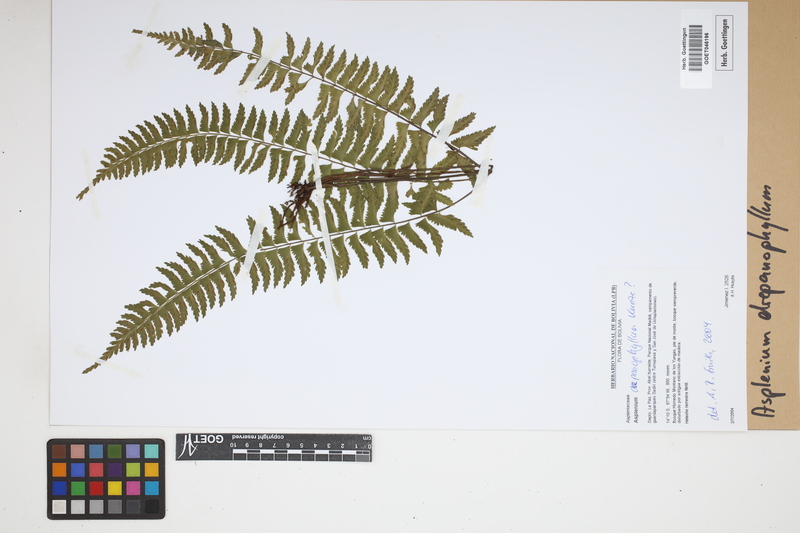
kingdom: Plantae
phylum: Tracheophyta
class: Polypodiopsida
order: Polypodiales
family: Aspleniaceae
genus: Asplenium
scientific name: Asplenium drepanophyllum
